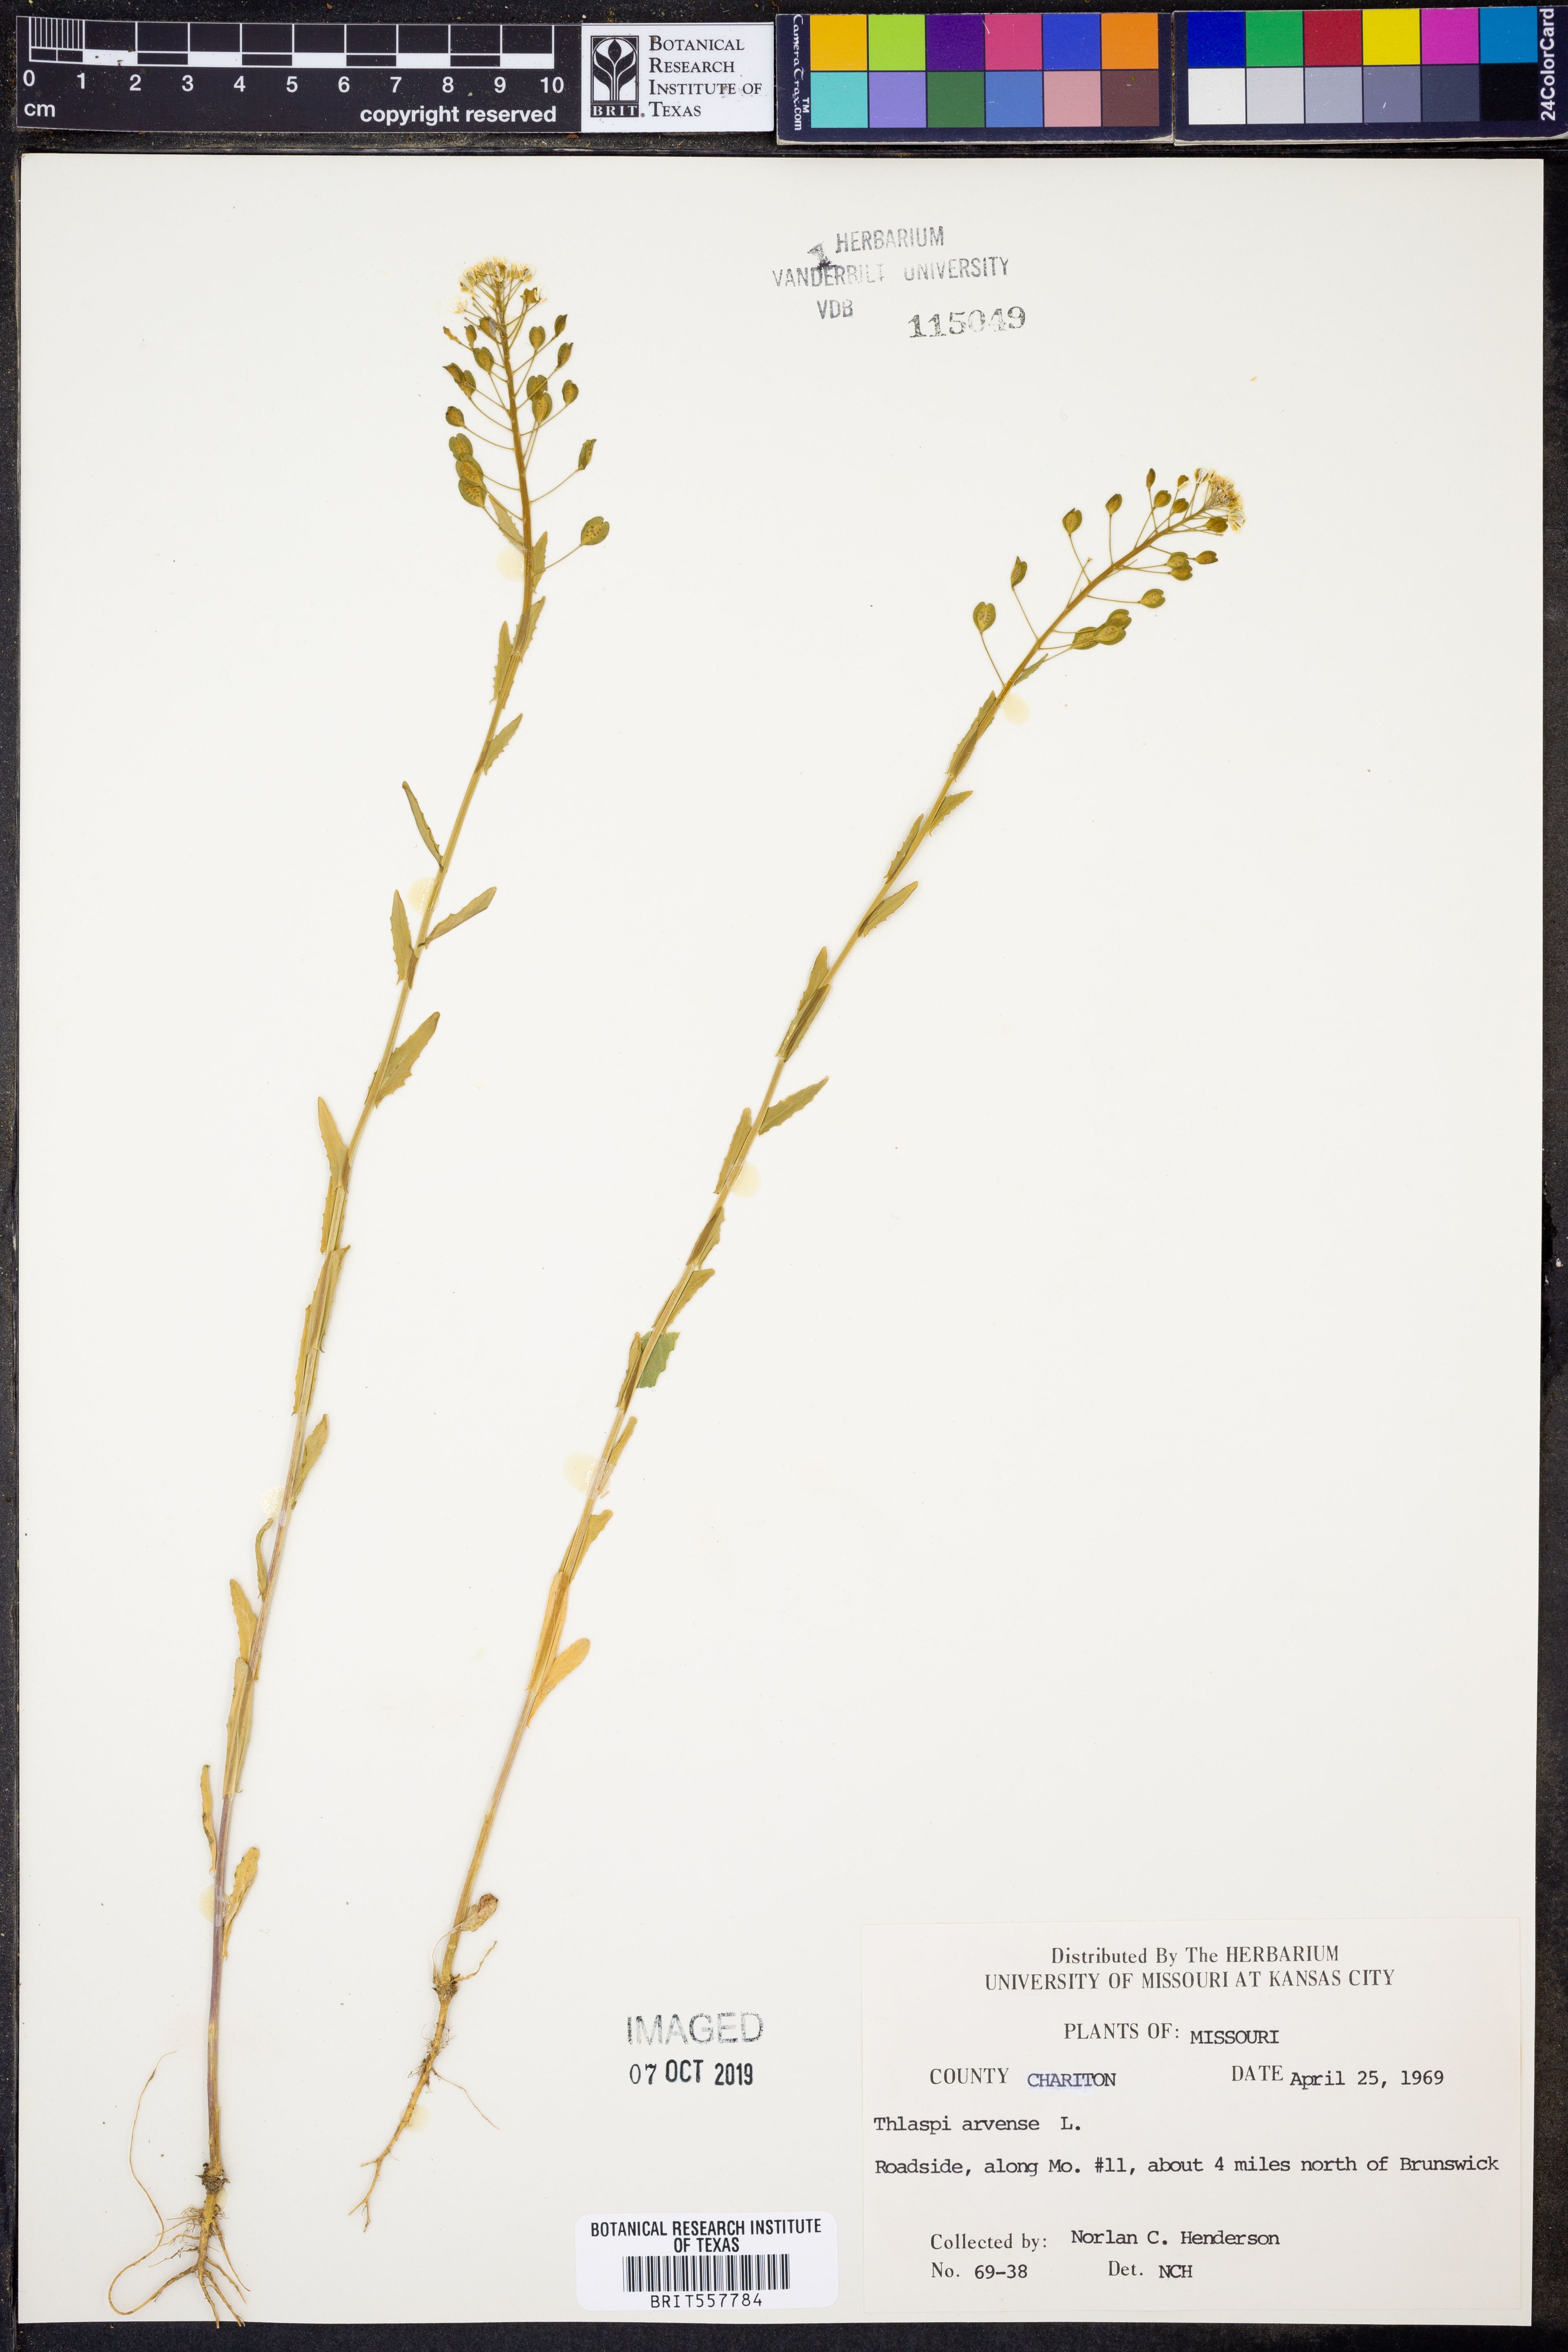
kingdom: Plantae
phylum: Tracheophyta
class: Magnoliopsida
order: Brassicales
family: Brassicaceae
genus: Thlaspi
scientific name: Thlaspi arvense
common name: Field pennycress
